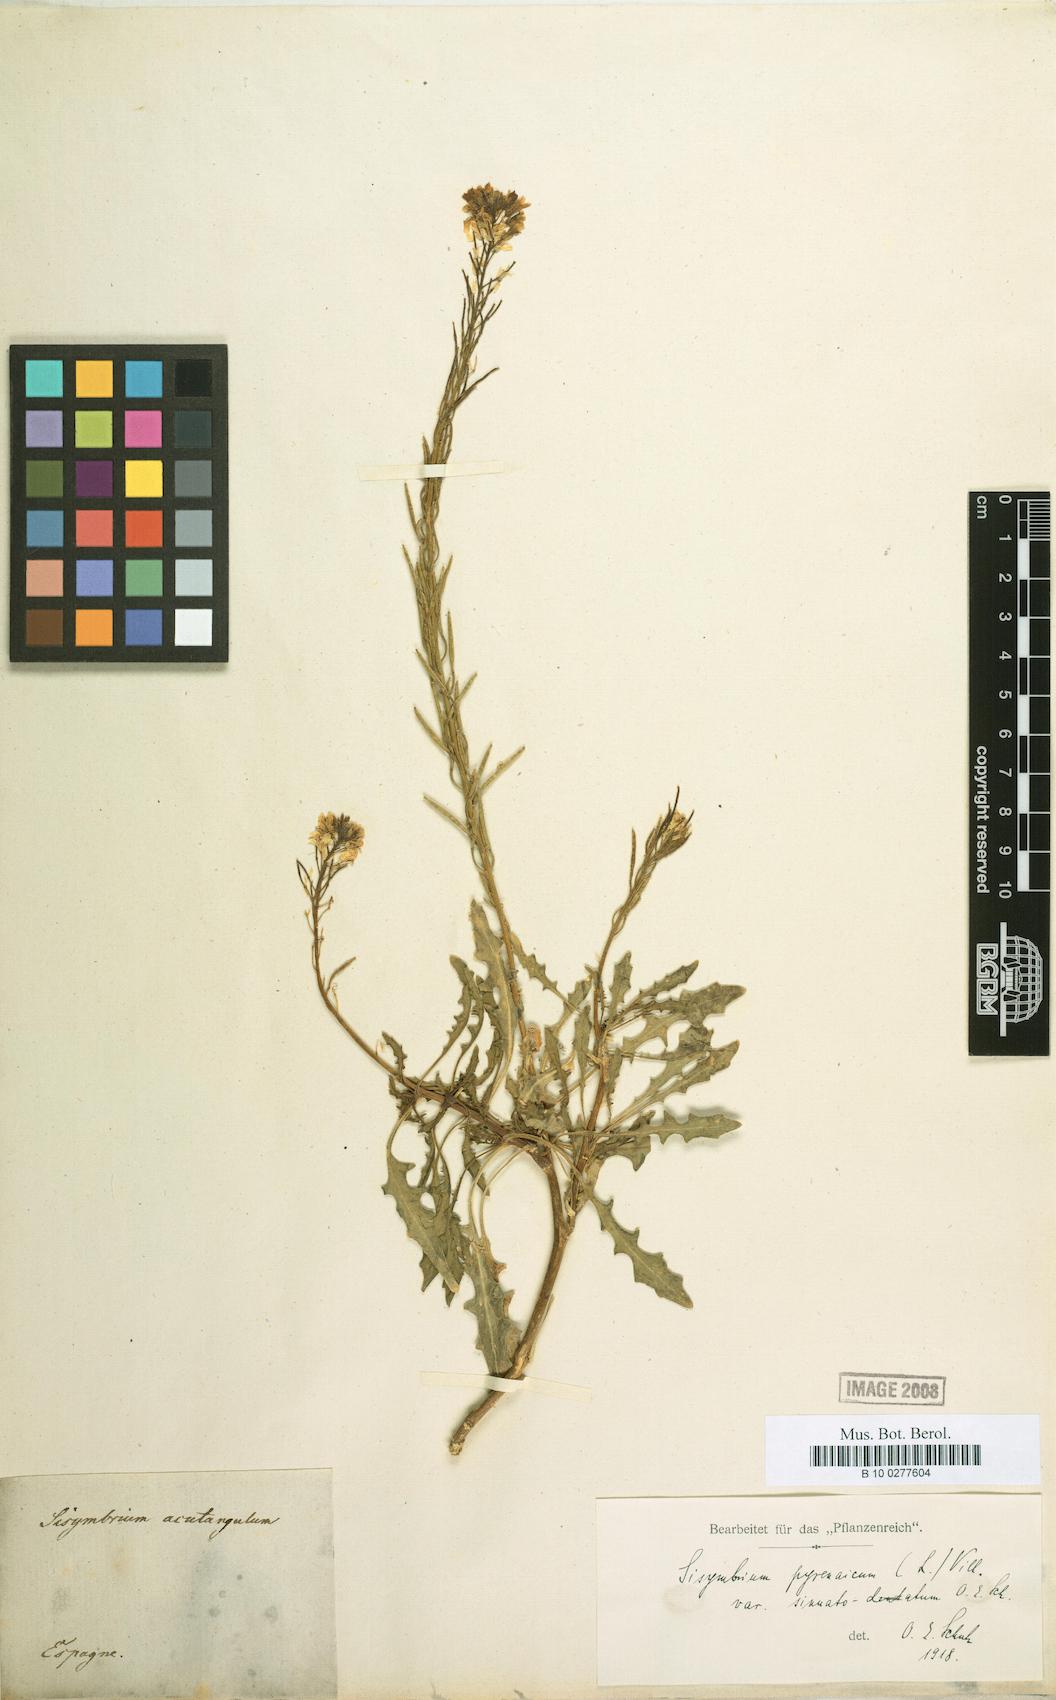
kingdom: Plantae
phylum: Tracheophyta
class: Magnoliopsida
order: Brassicales
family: Brassicaceae
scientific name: Brassicaceae
